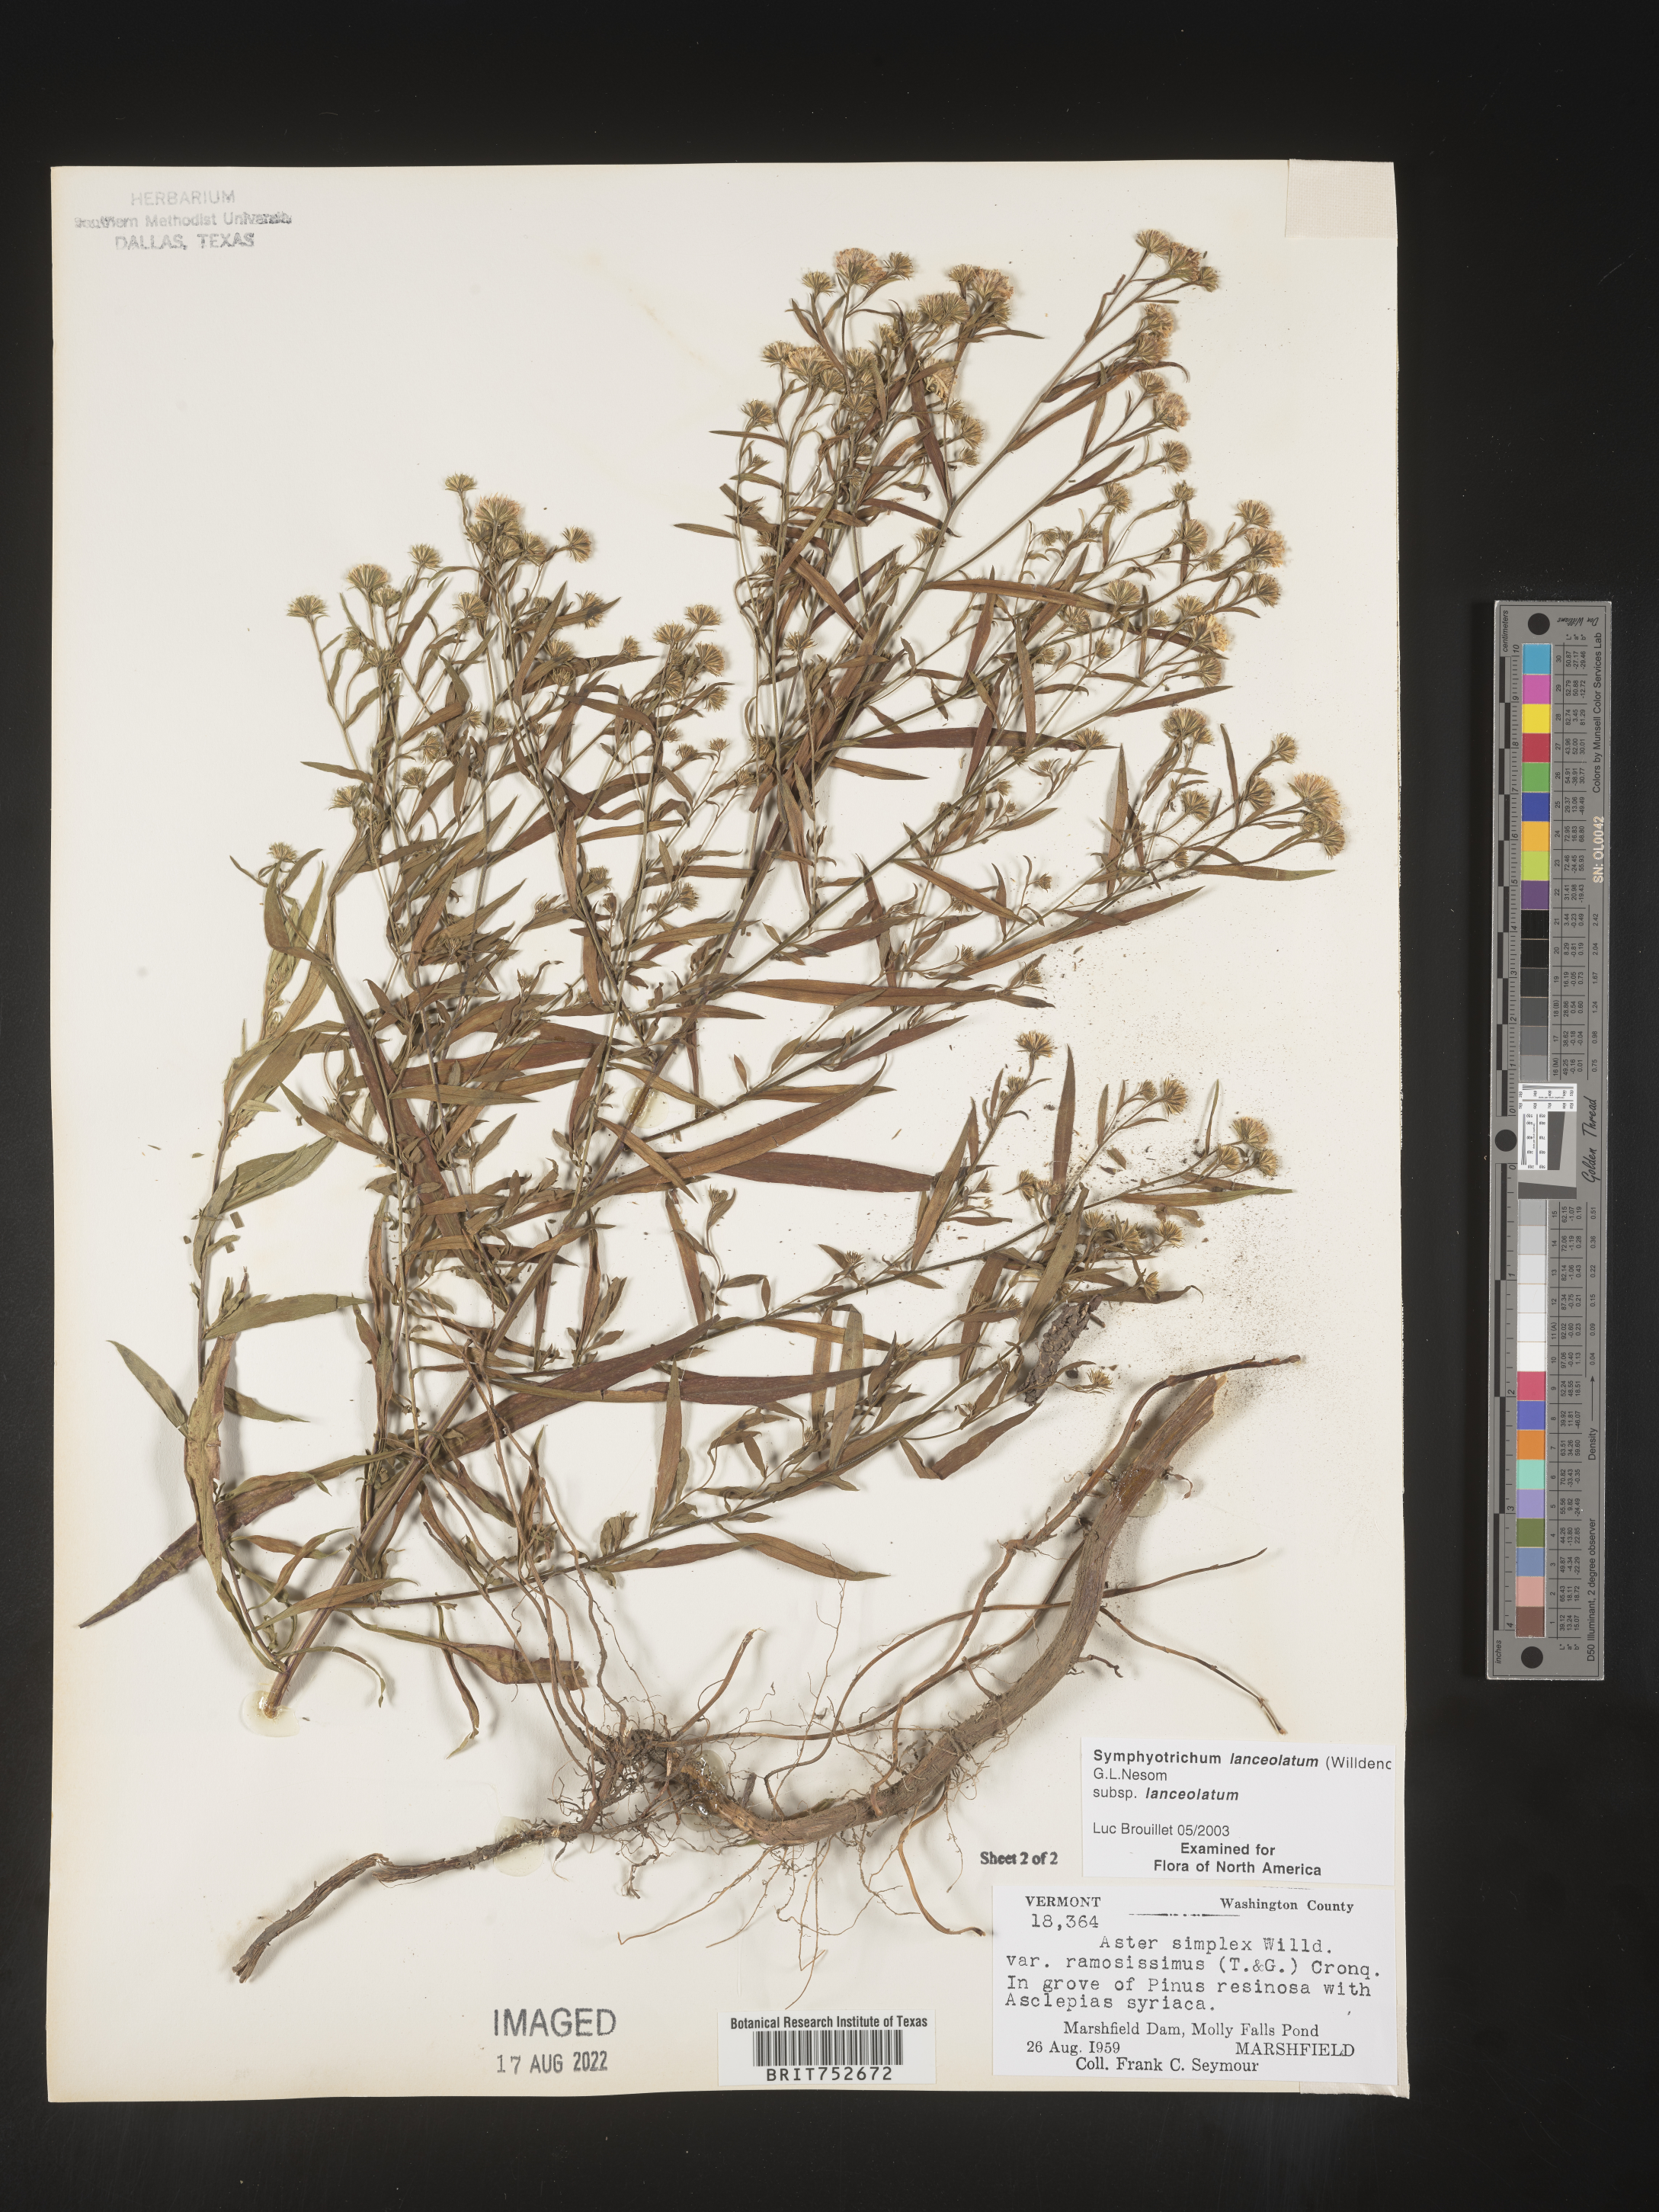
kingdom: Plantae
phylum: Tracheophyta
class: Magnoliopsida
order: Asterales
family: Asteraceae
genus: Symphyotrichum
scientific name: Symphyotrichum lanceolatum
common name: Panicled aster
